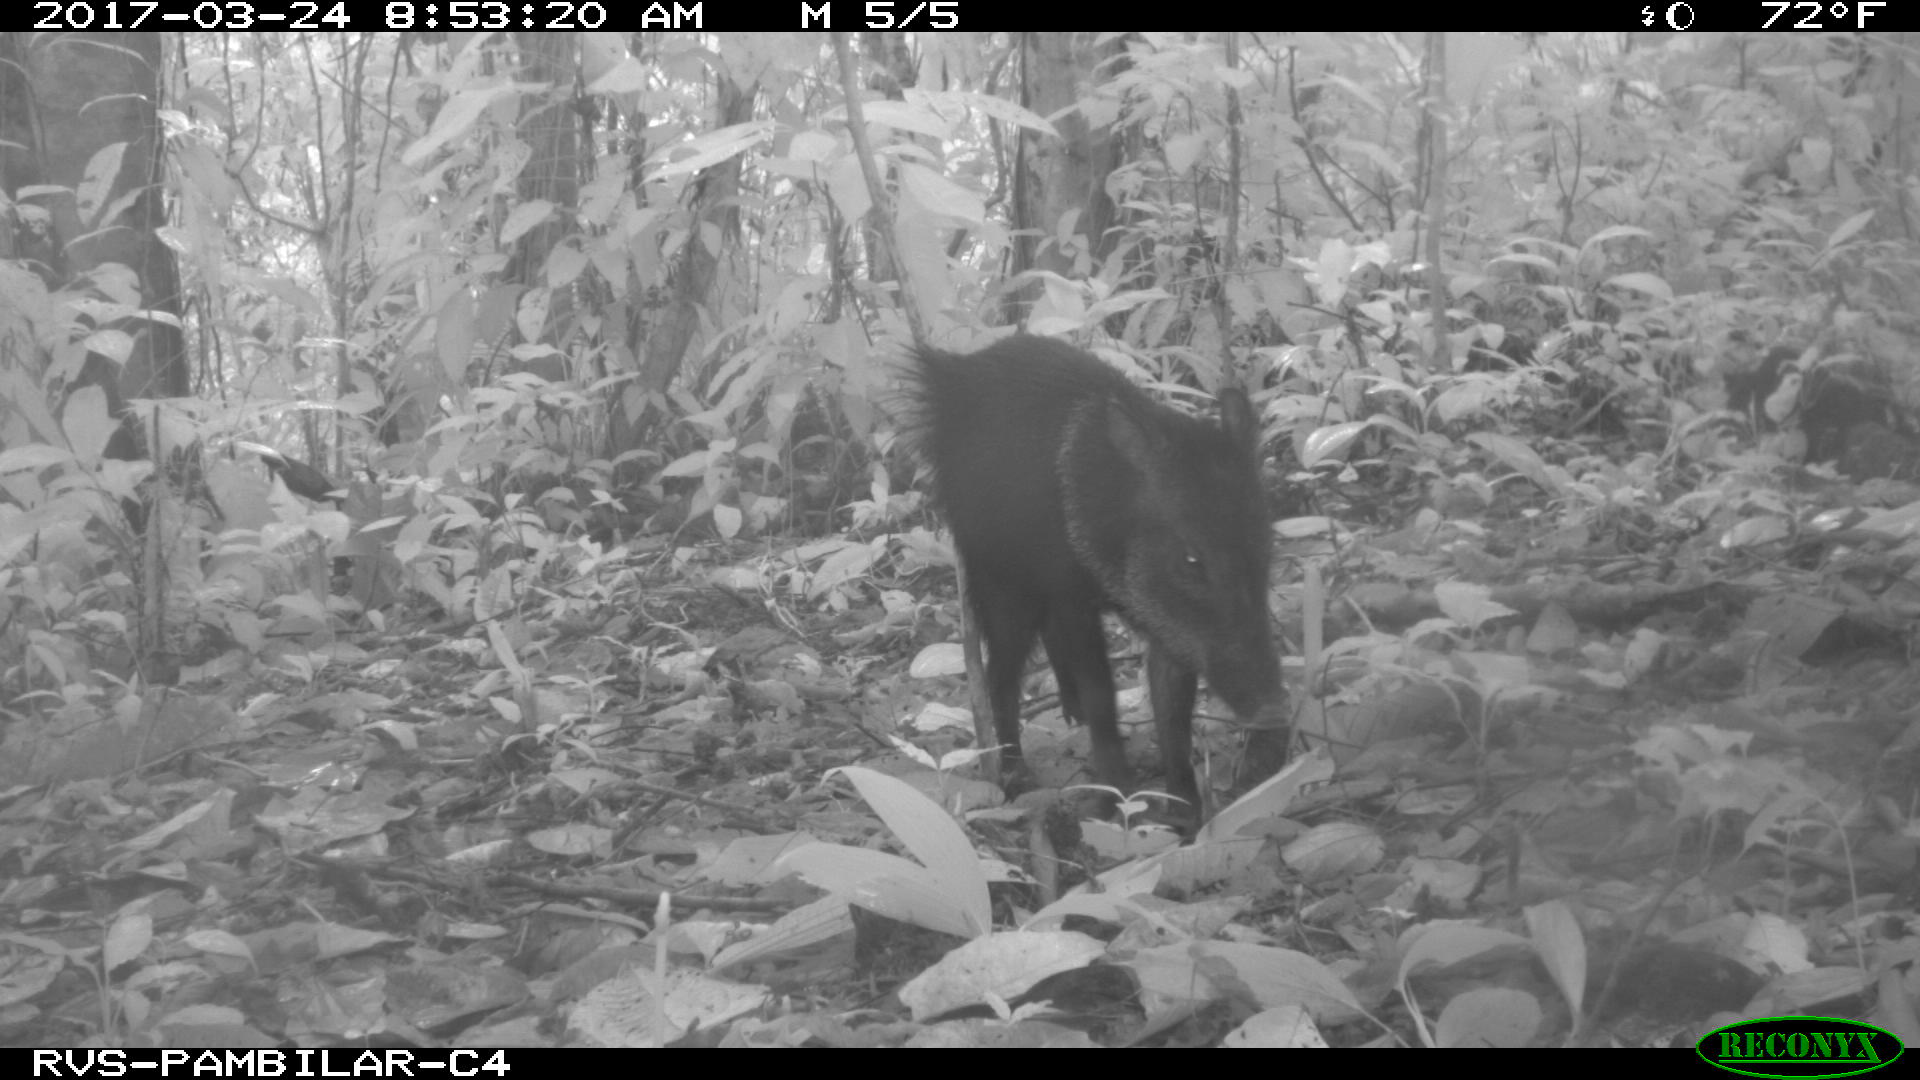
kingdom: Animalia
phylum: Chordata
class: Mammalia
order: Artiodactyla
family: Tayassuidae
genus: Tayassu
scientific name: Tayassu pecari
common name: White-lipped peccary
